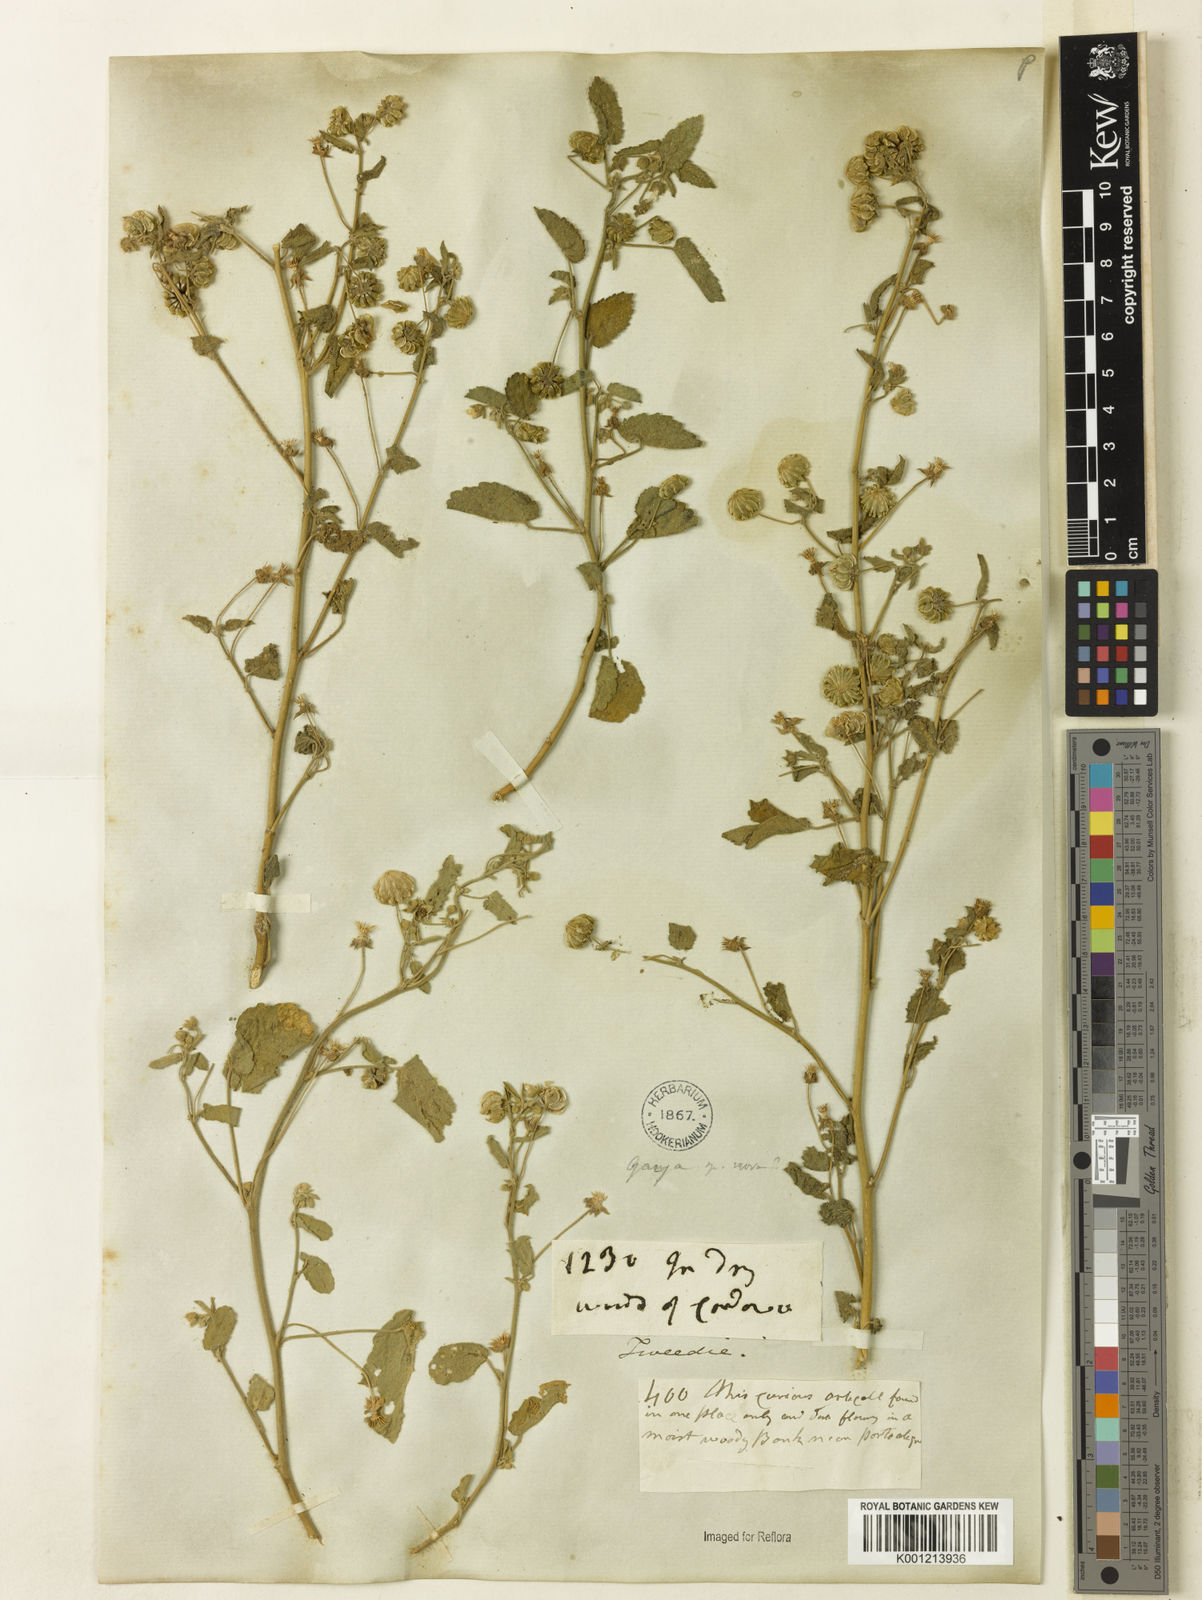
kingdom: Plantae
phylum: Tracheophyta
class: Magnoliopsida
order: Malvales
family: Malvaceae
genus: Gaya
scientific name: Gaya gaudichaudiana
